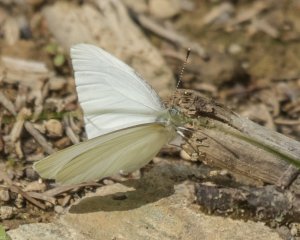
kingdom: Animalia
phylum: Arthropoda
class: Insecta
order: Lepidoptera
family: Pieridae
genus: Pieris
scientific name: Pieris oleracea
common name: Mustard White
